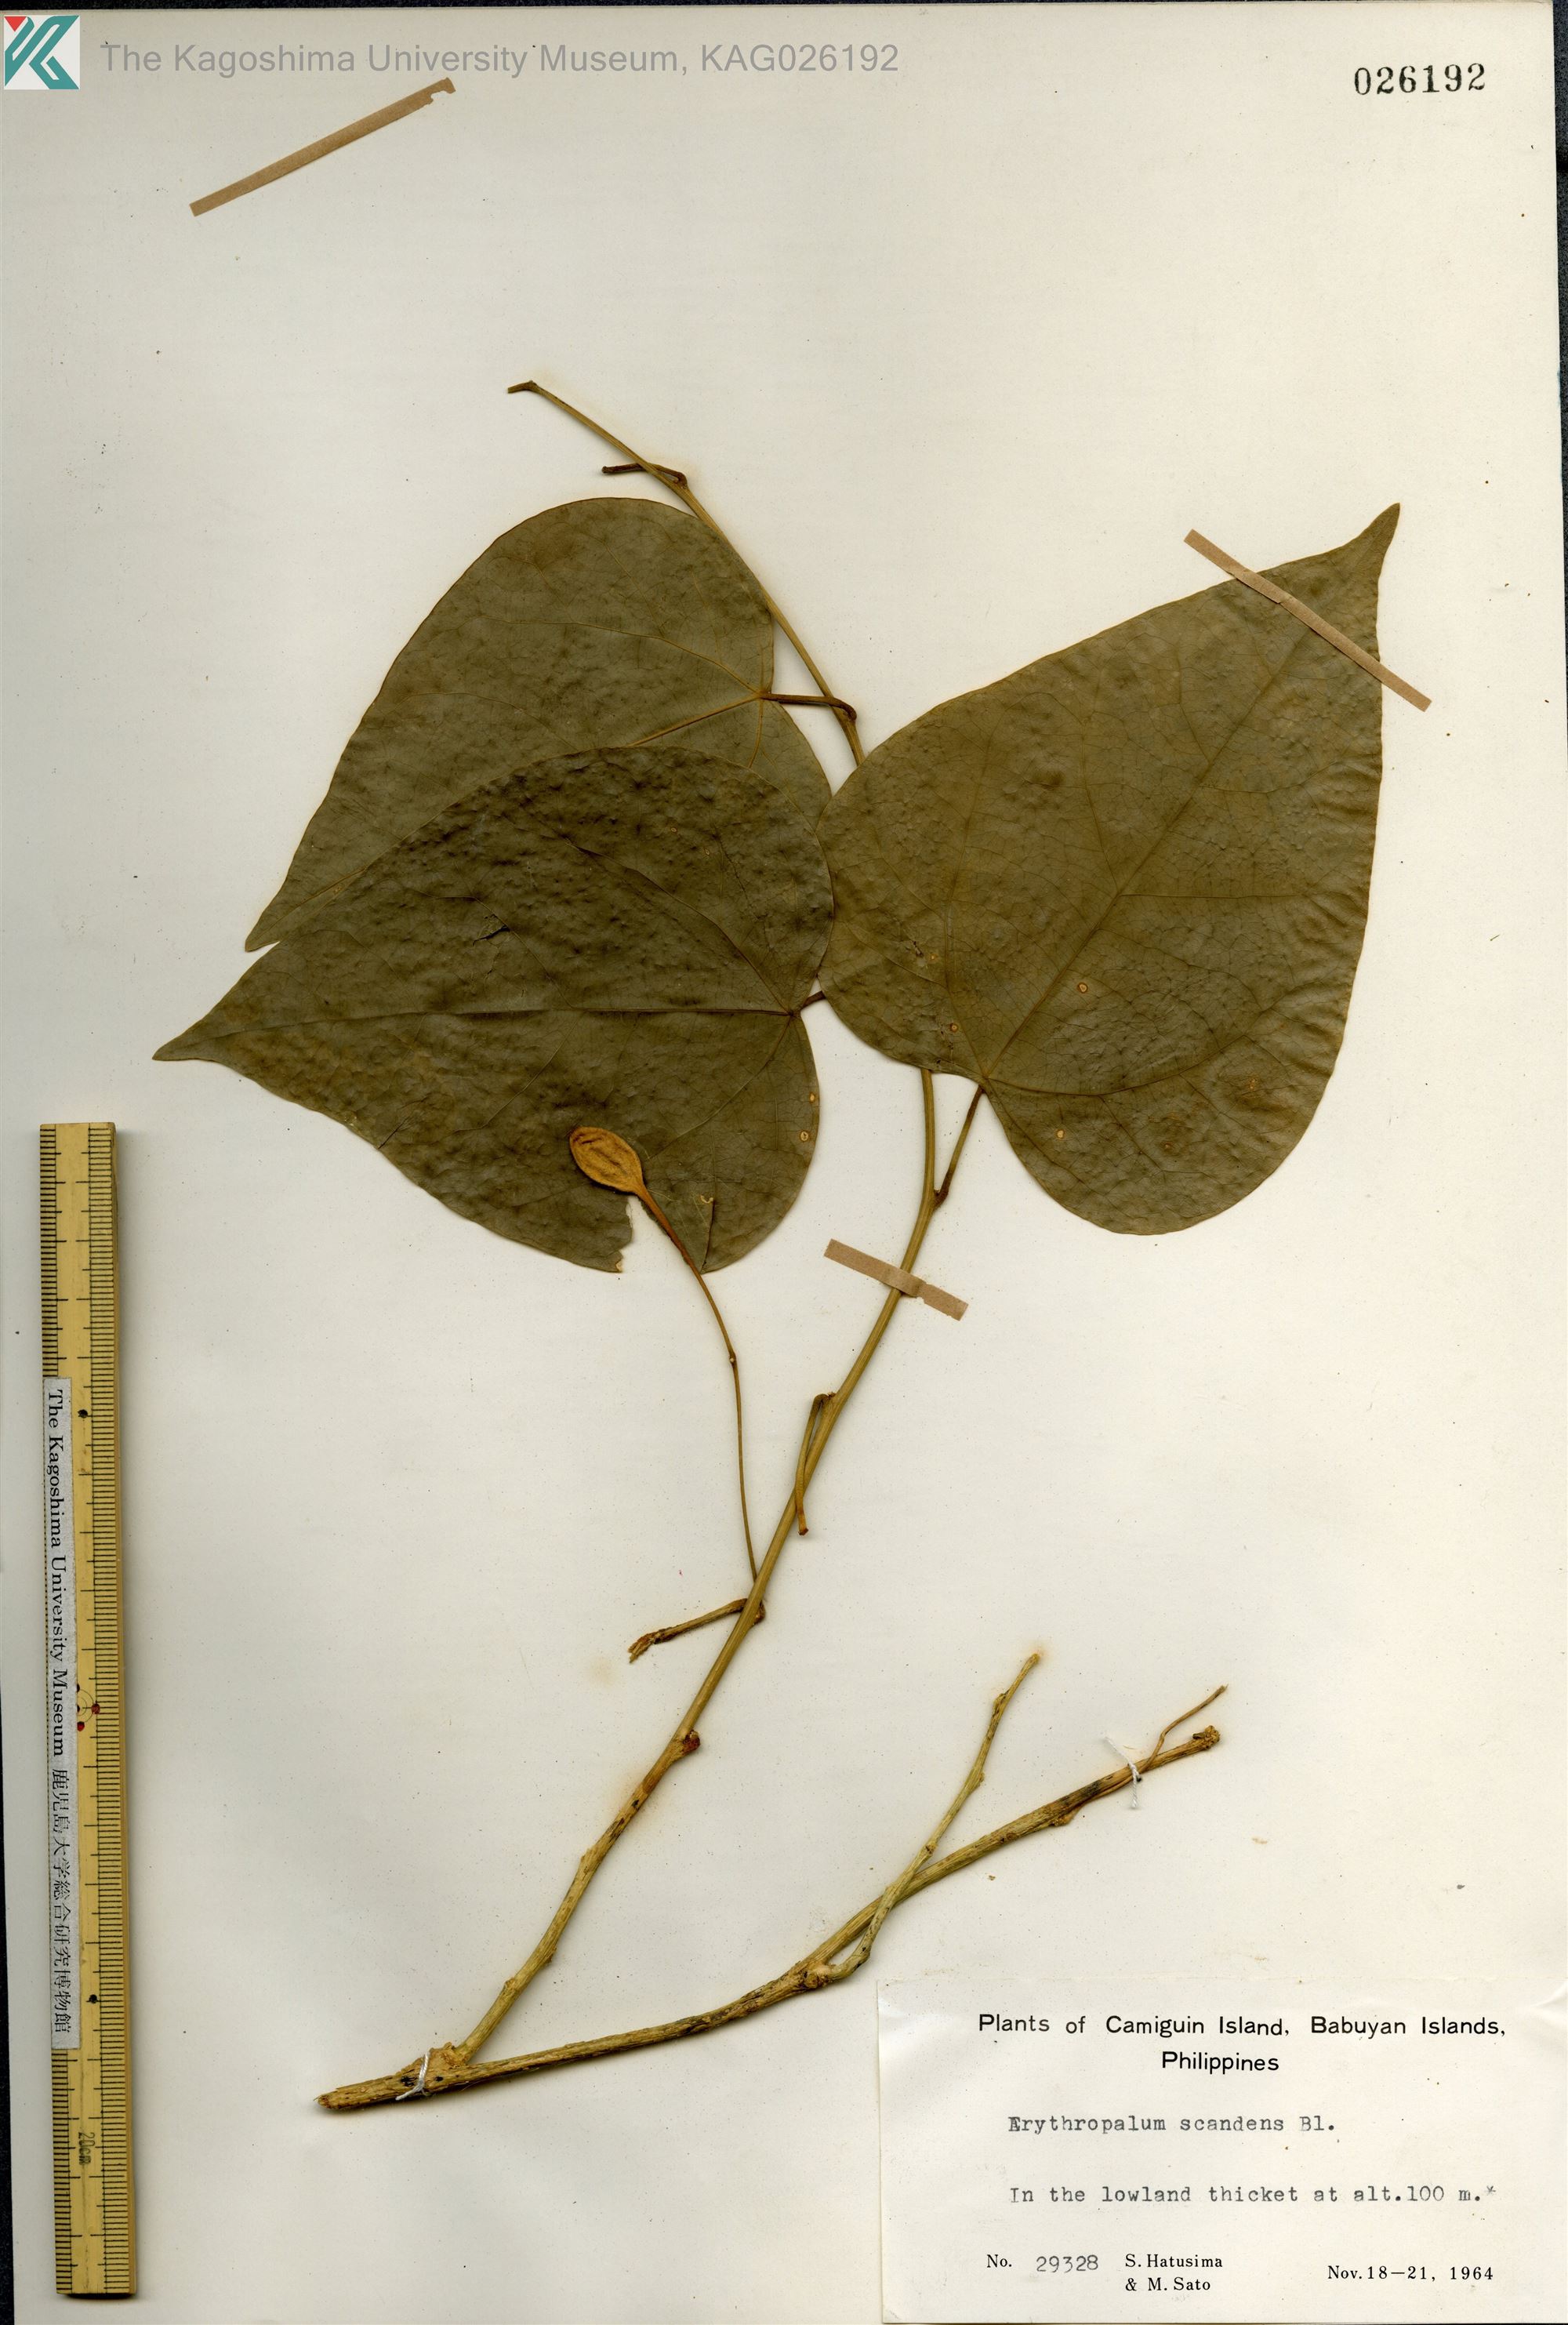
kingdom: Plantae
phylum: Tracheophyta
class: Magnoliopsida
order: Santalales
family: Erythropalaceae
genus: Erythropalum
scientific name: Erythropalum scandens
